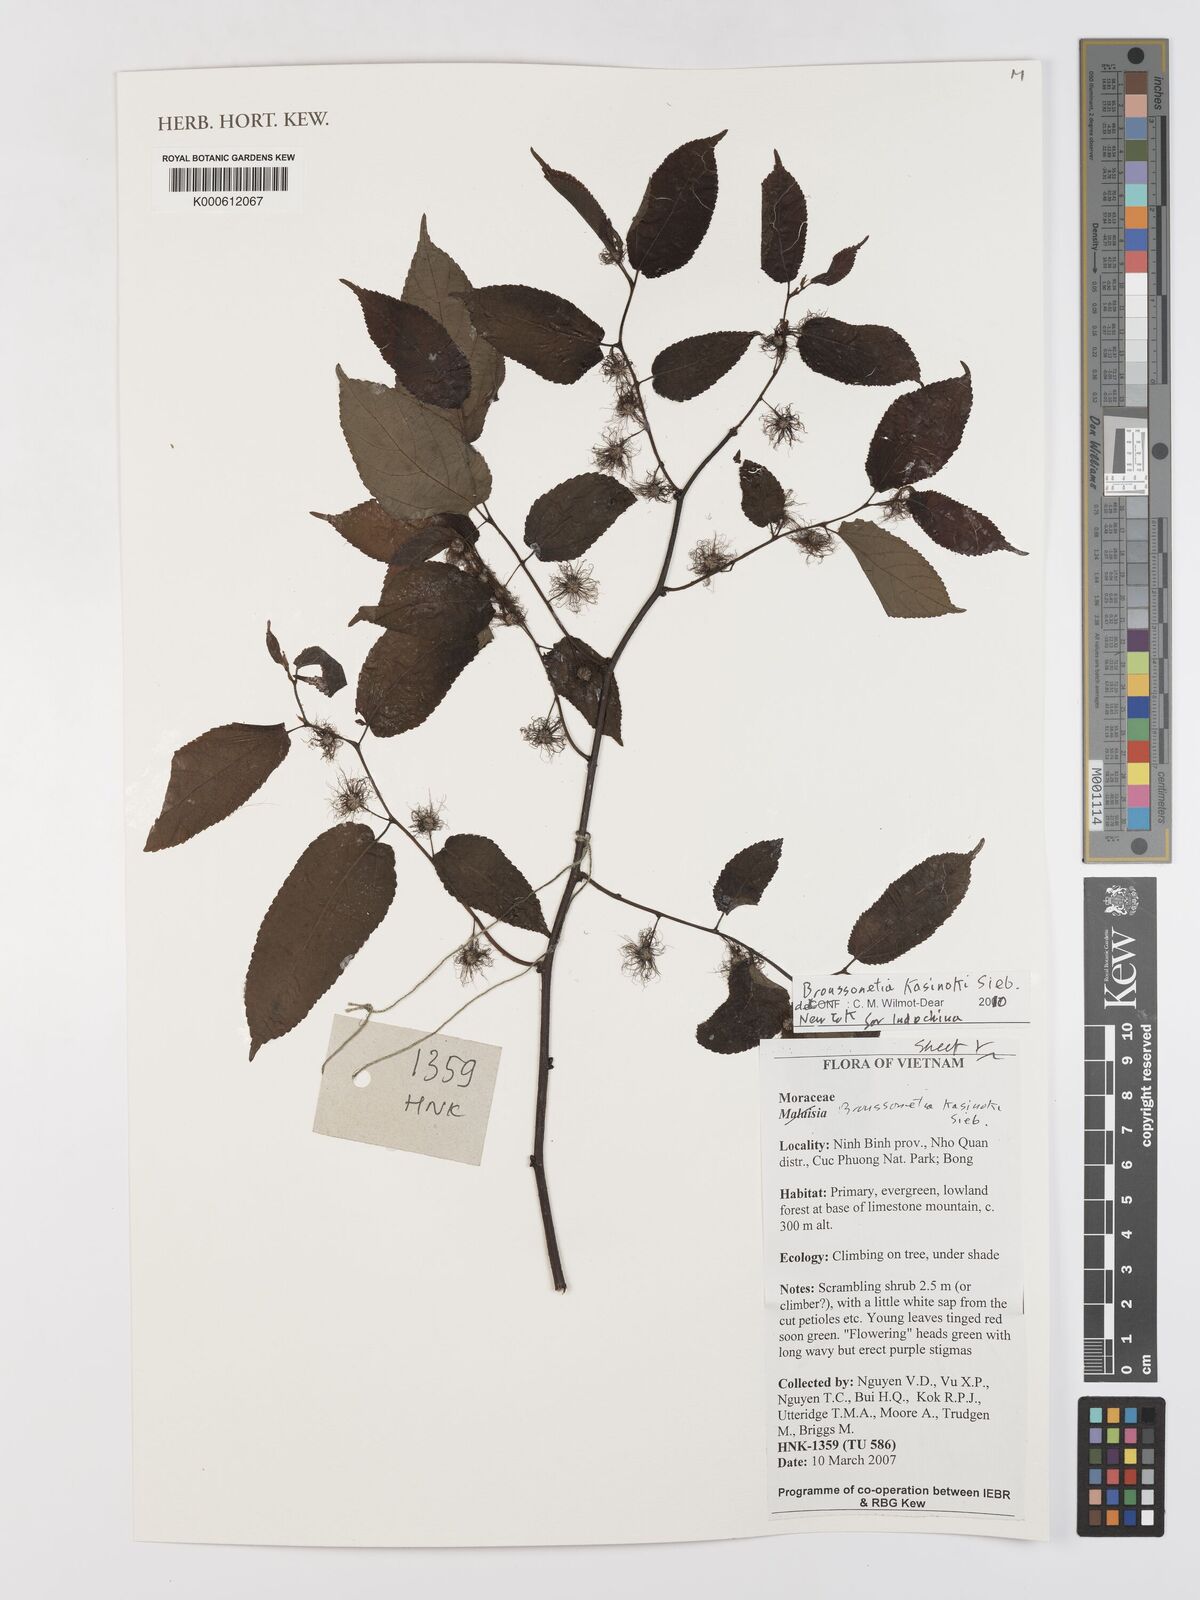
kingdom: Plantae
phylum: Tracheophyta
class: Magnoliopsida
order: Rosales
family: Moraceae
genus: Broussonetia
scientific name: Broussonetia
